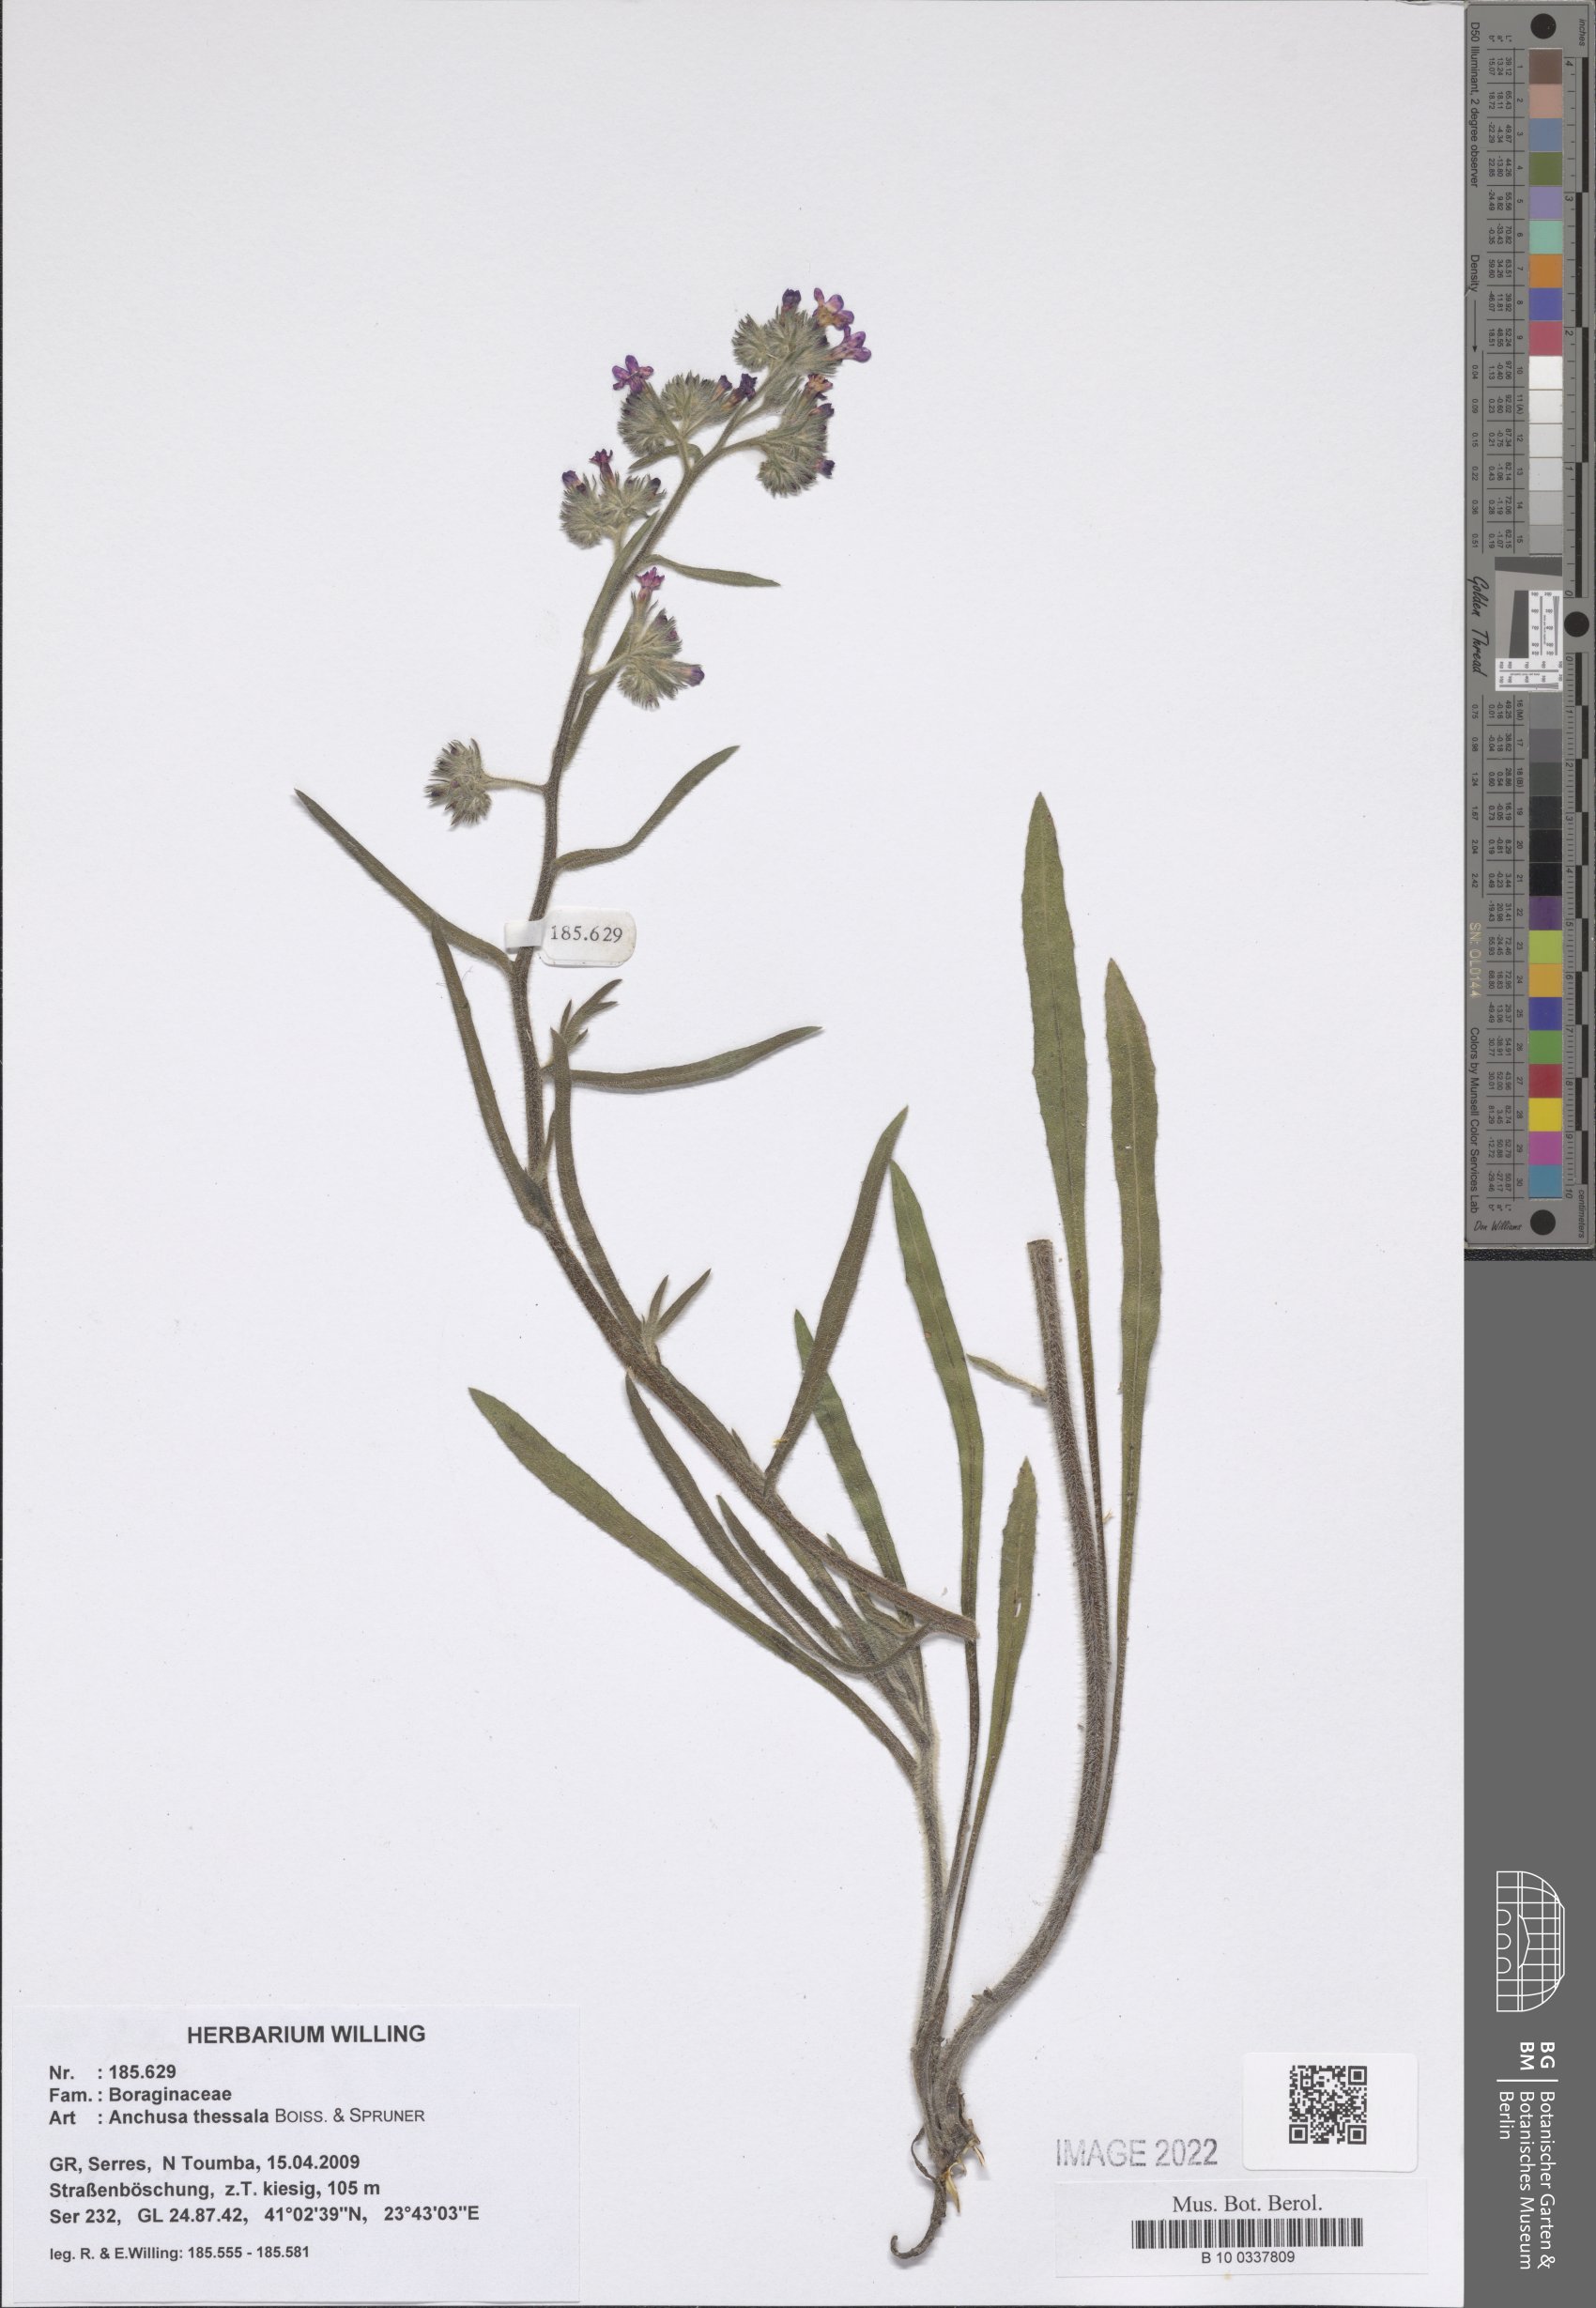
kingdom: Plantae
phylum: Tracheophyta
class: Magnoliopsida
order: Boraginales
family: Boraginaceae
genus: Anchusa
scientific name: Anchusa thessala
